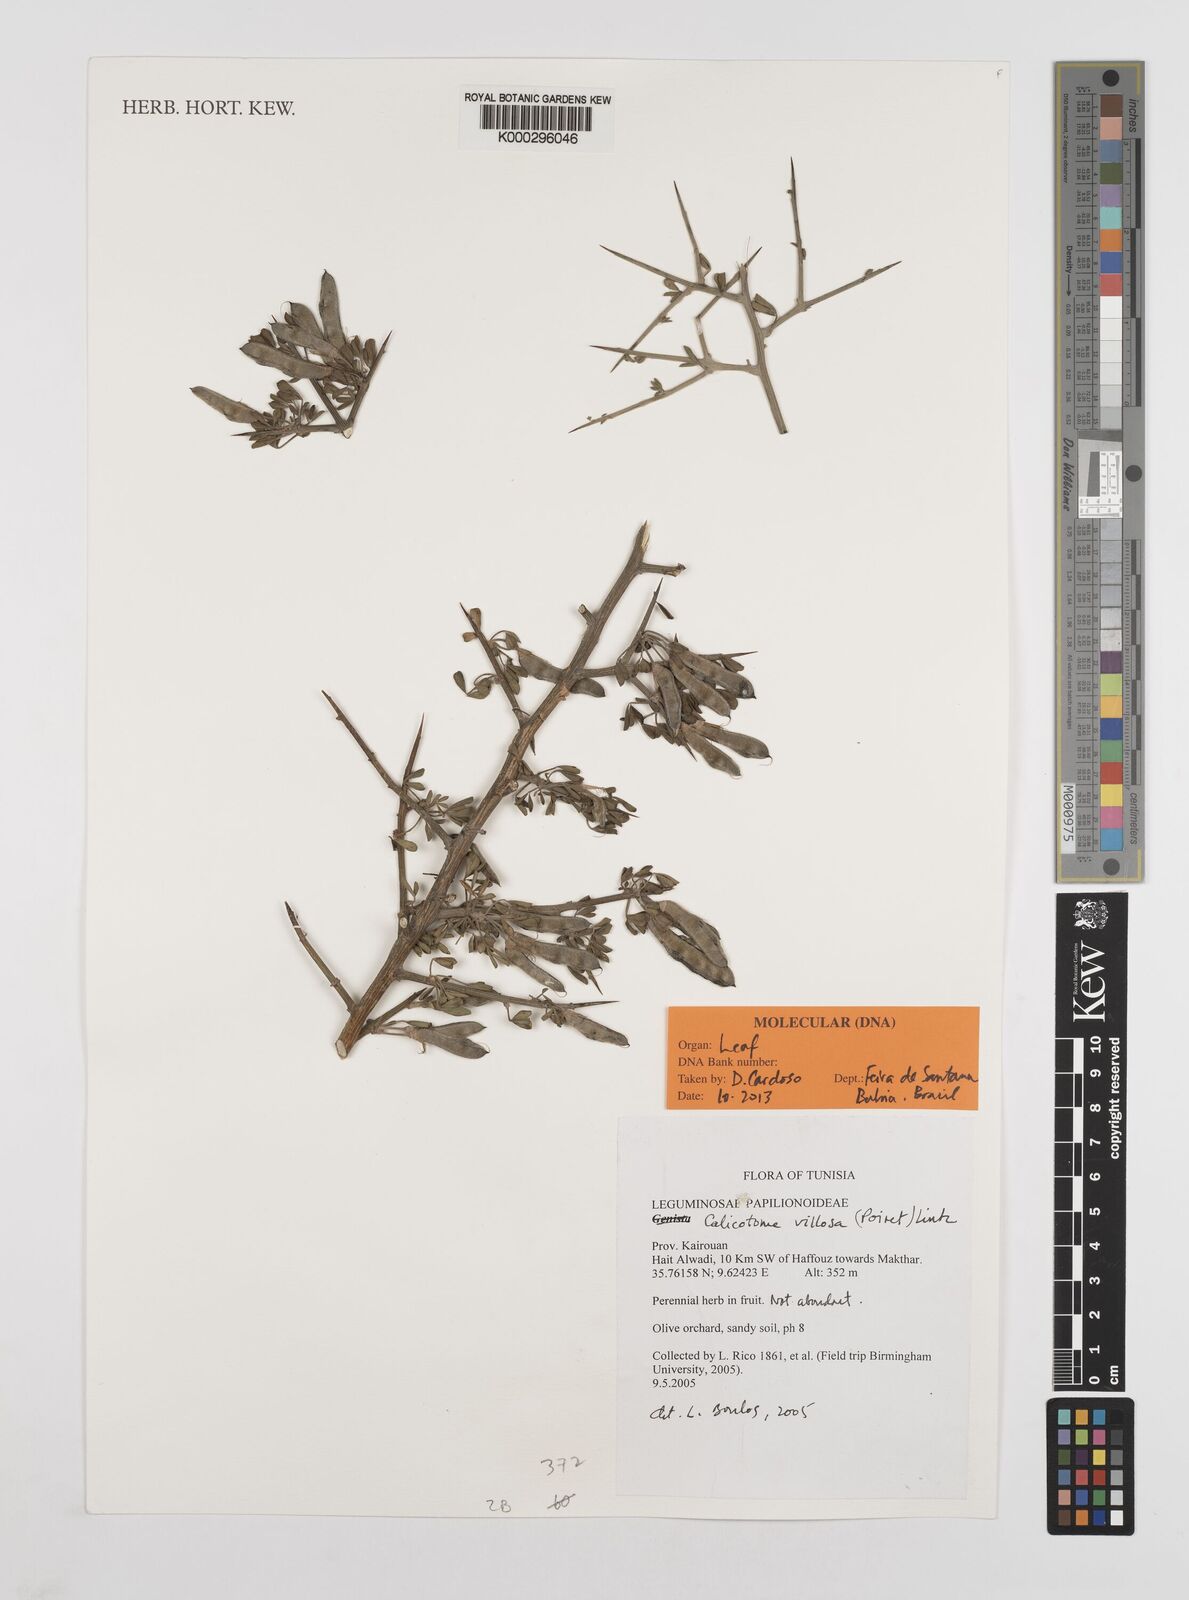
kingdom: Plantae
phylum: Tracheophyta
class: Magnoliopsida
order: Fabales
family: Fabaceae
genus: Calicotome
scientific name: Calicotome villosa
